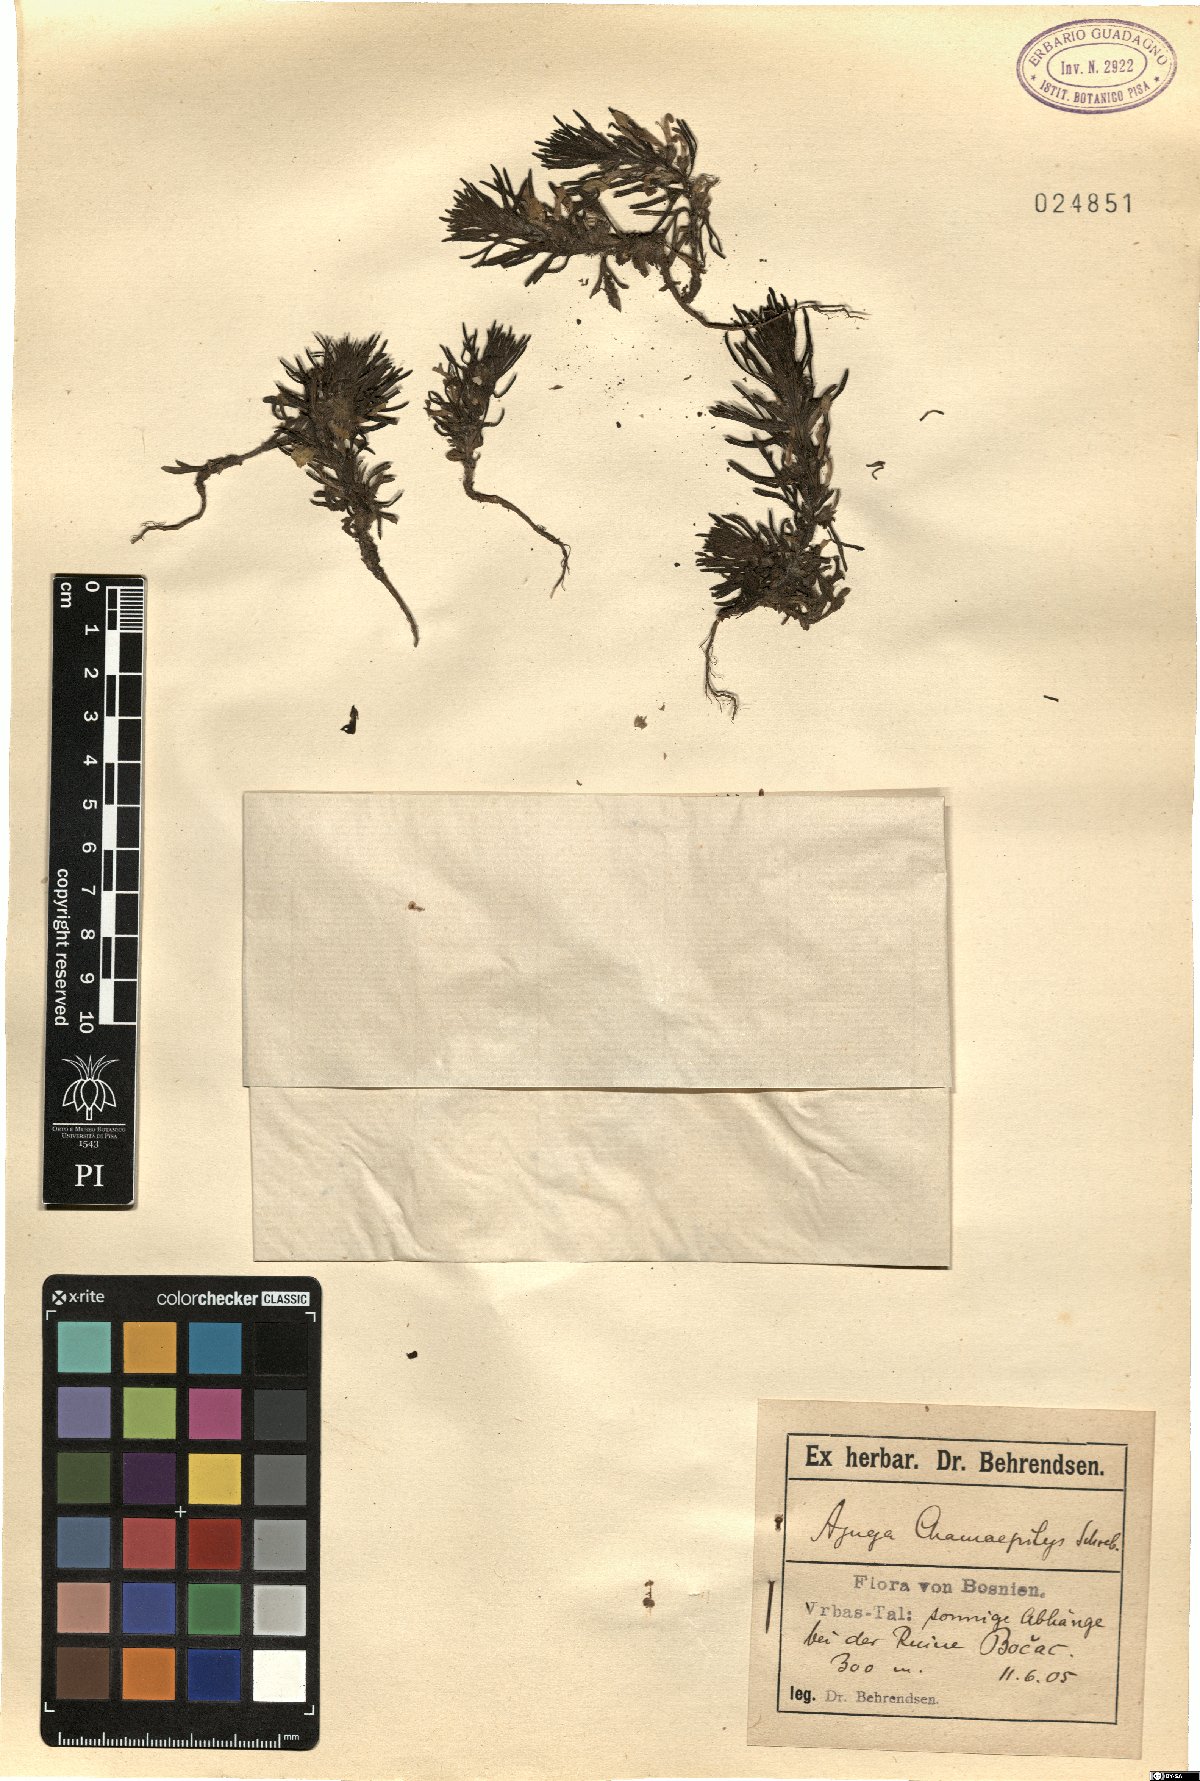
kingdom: Plantae
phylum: Tracheophyta
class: Magnoliopsida
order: Lamiales
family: Lamiaceae
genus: Ajuga
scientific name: Ajuga chamaepitys
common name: Ground-pine
